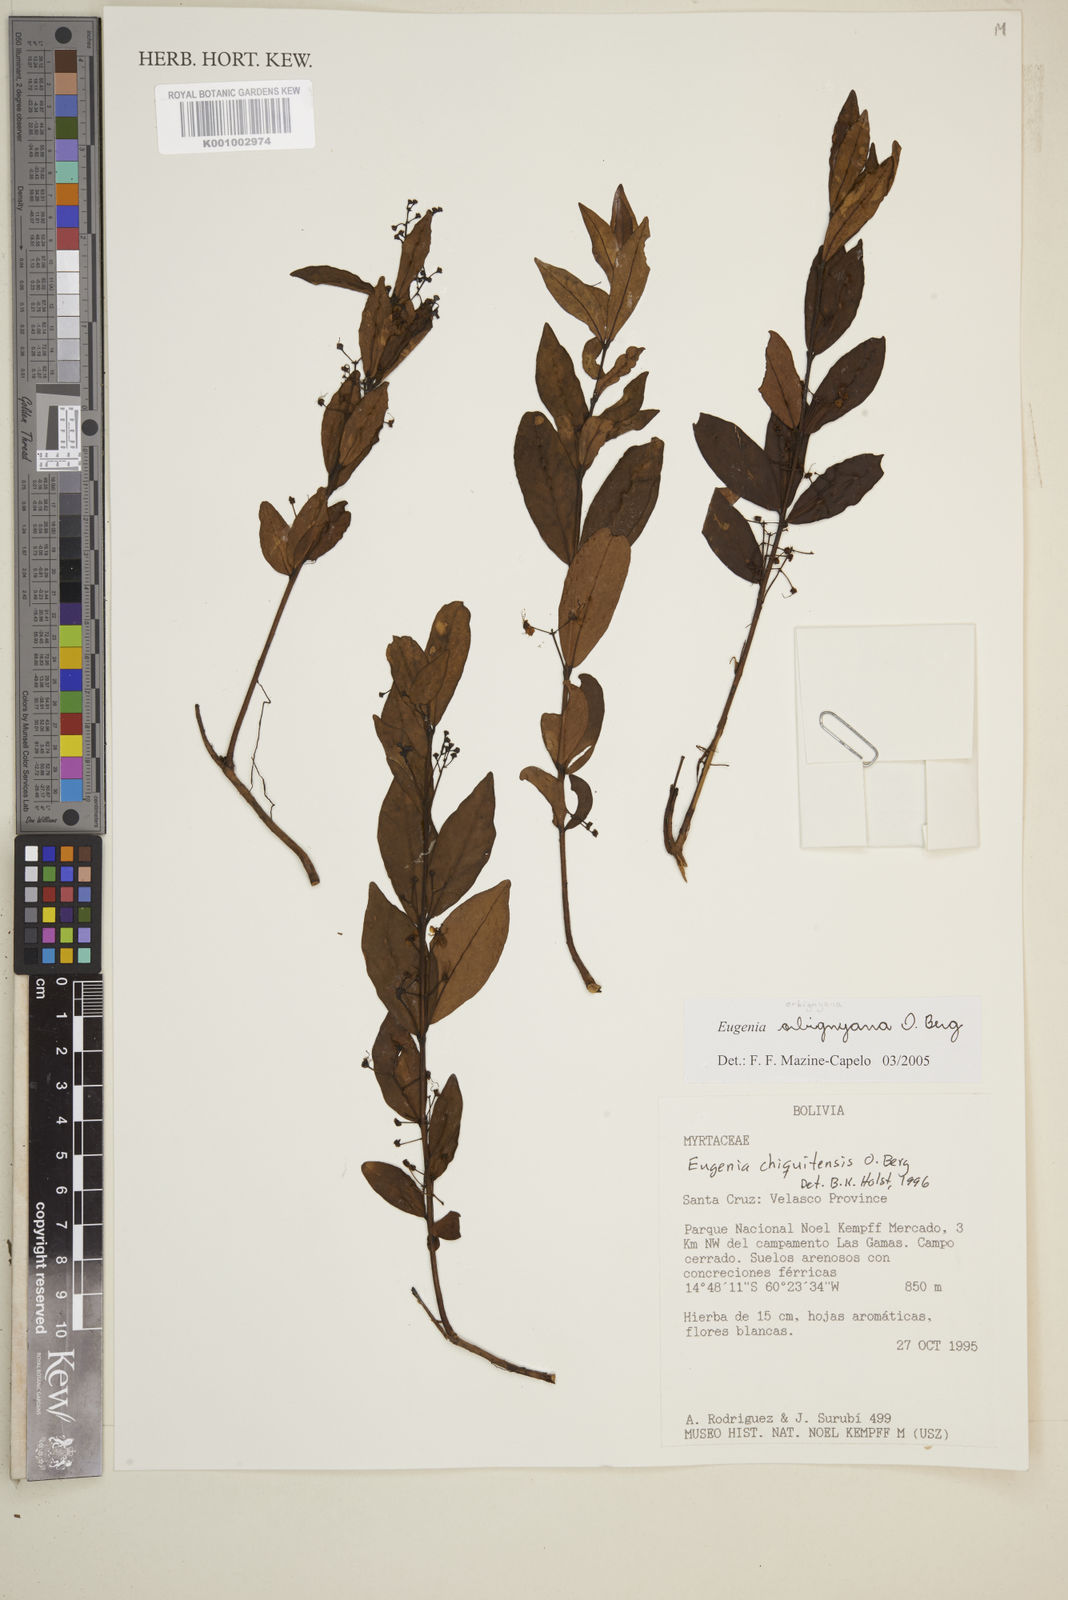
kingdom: Plantae
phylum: Tracheophyta
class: Magnoliopsida
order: Myrtales
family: Myrtaceae
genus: Eugenia
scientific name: Eugenia orbignyana
